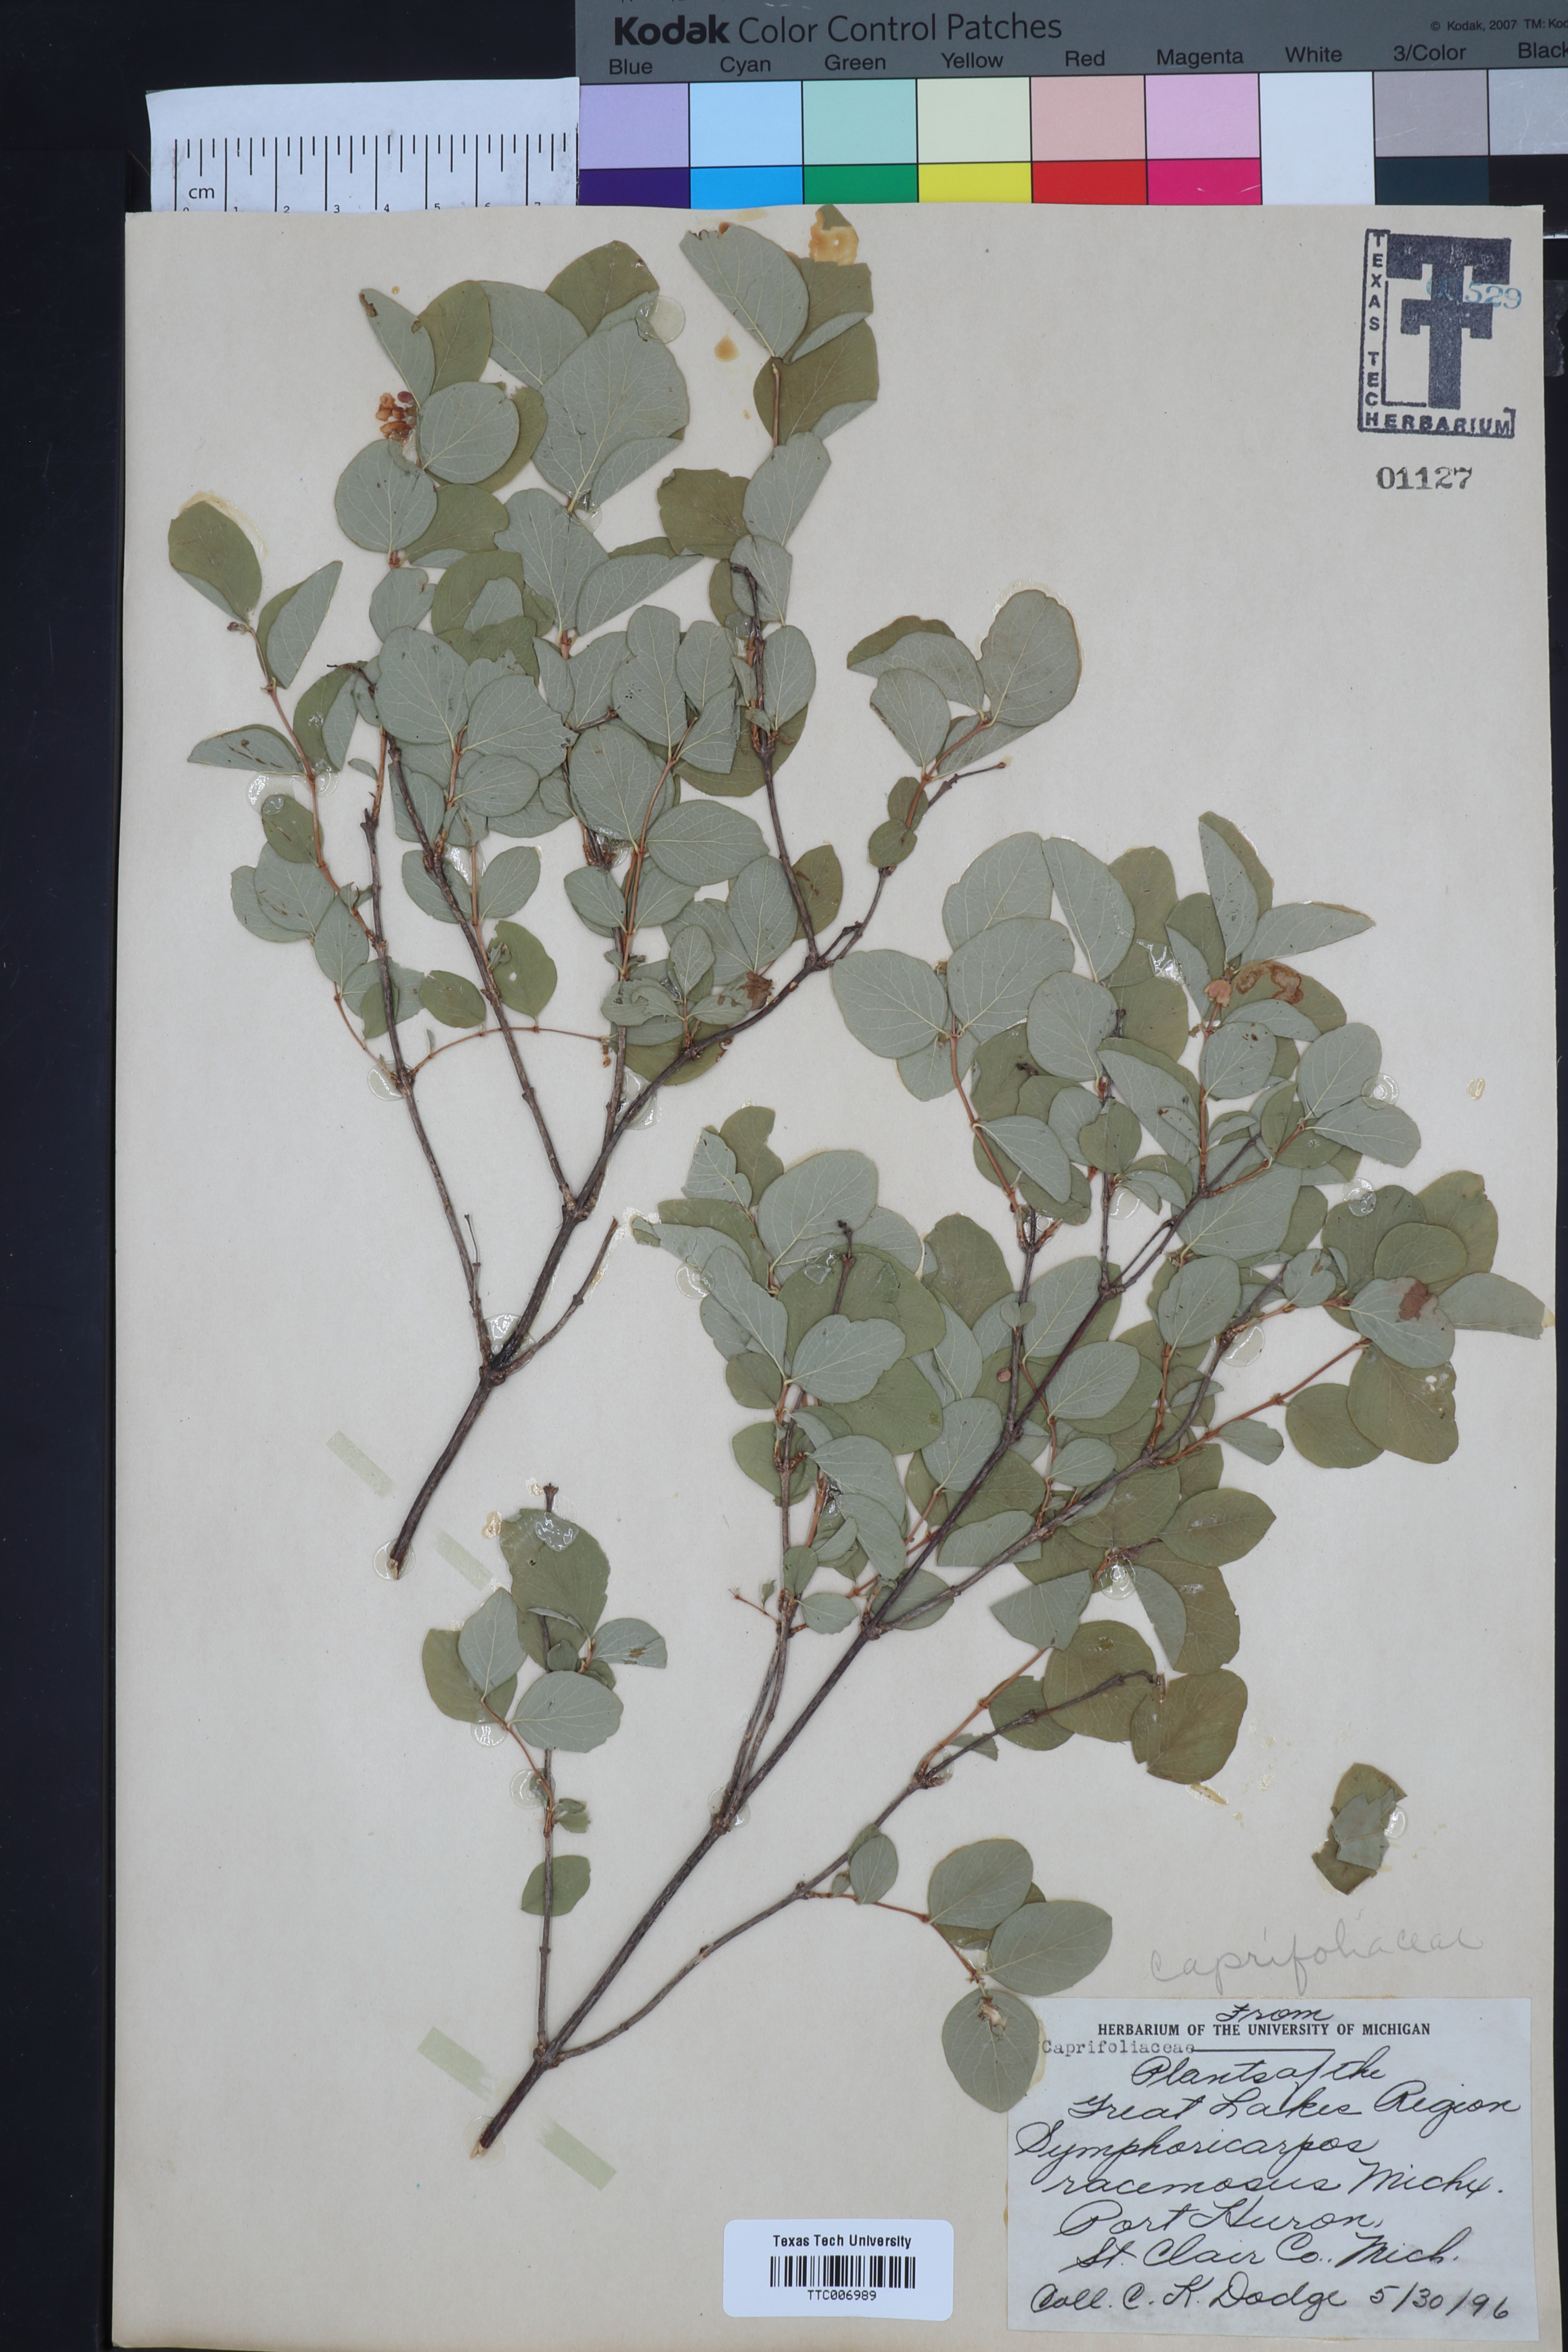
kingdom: Plantae
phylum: Tracheophyta
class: Magnoliopsida
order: Dipsacales
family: Caprifoliaceae
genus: Symphoricarpos
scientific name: Symphoricarpos albus
